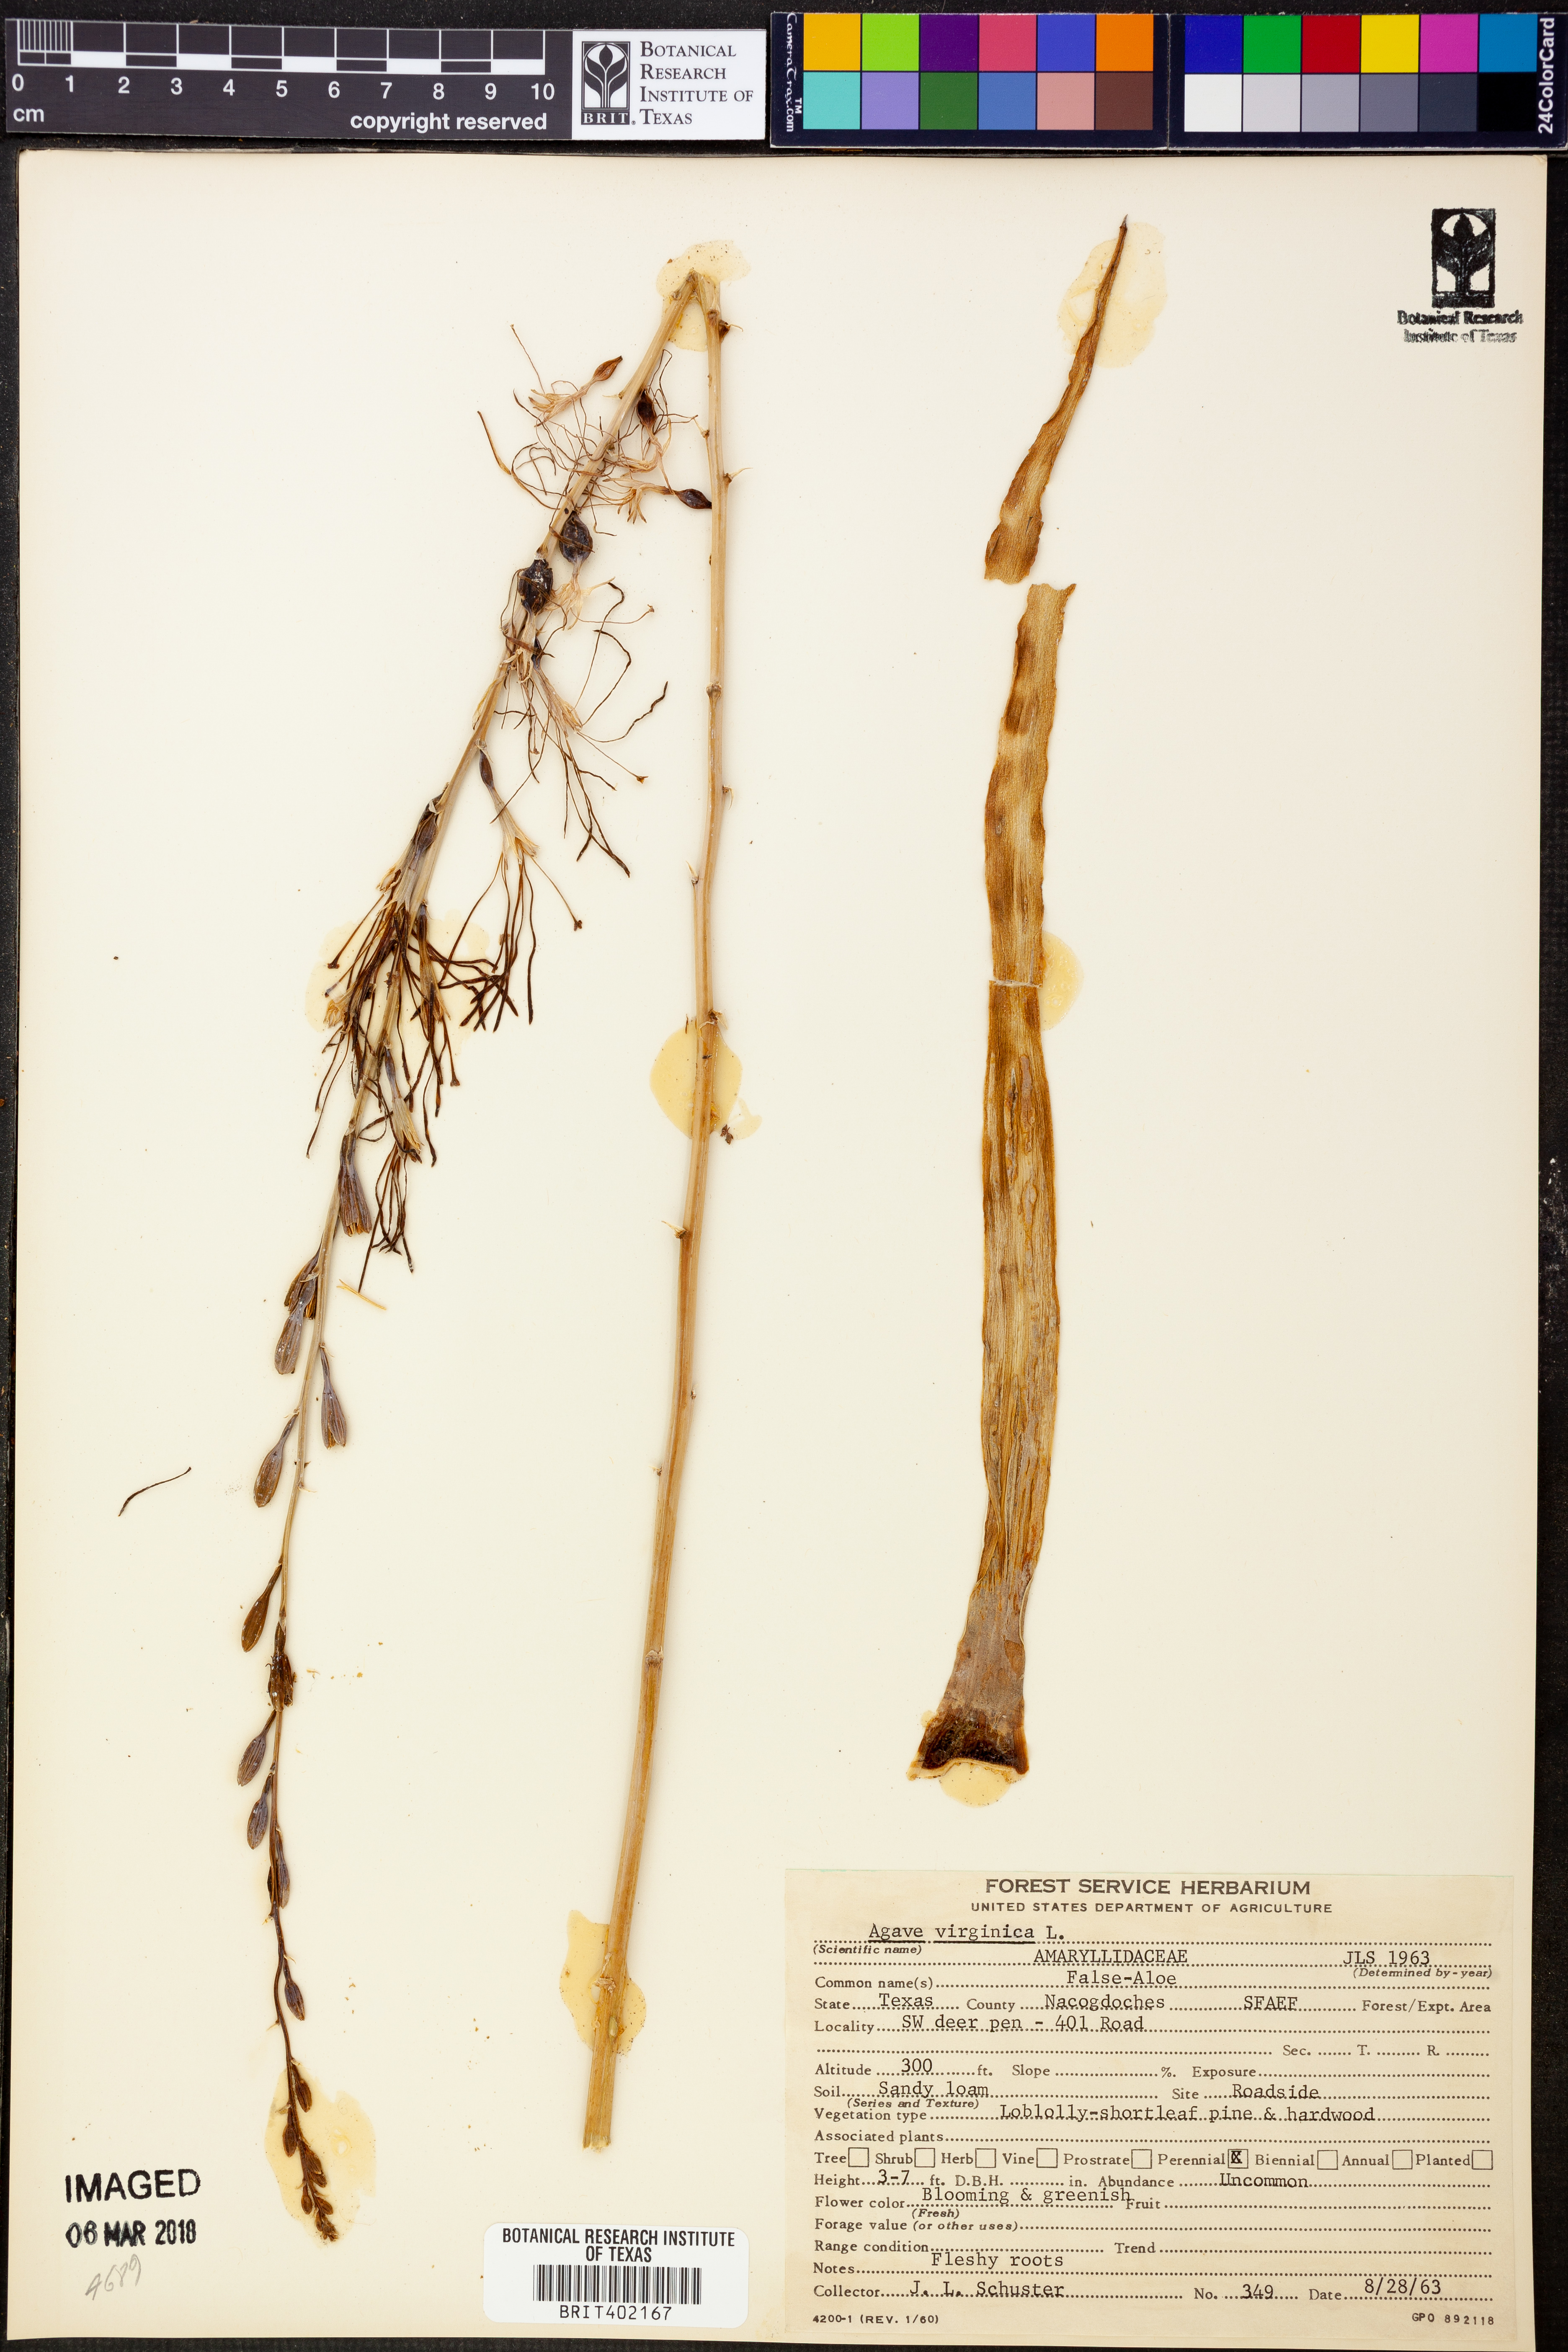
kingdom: Plantae
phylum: Tracheophyta
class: Liliopsida
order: Asparagales
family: Asparagaceae
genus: Agave
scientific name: Agave virginica
